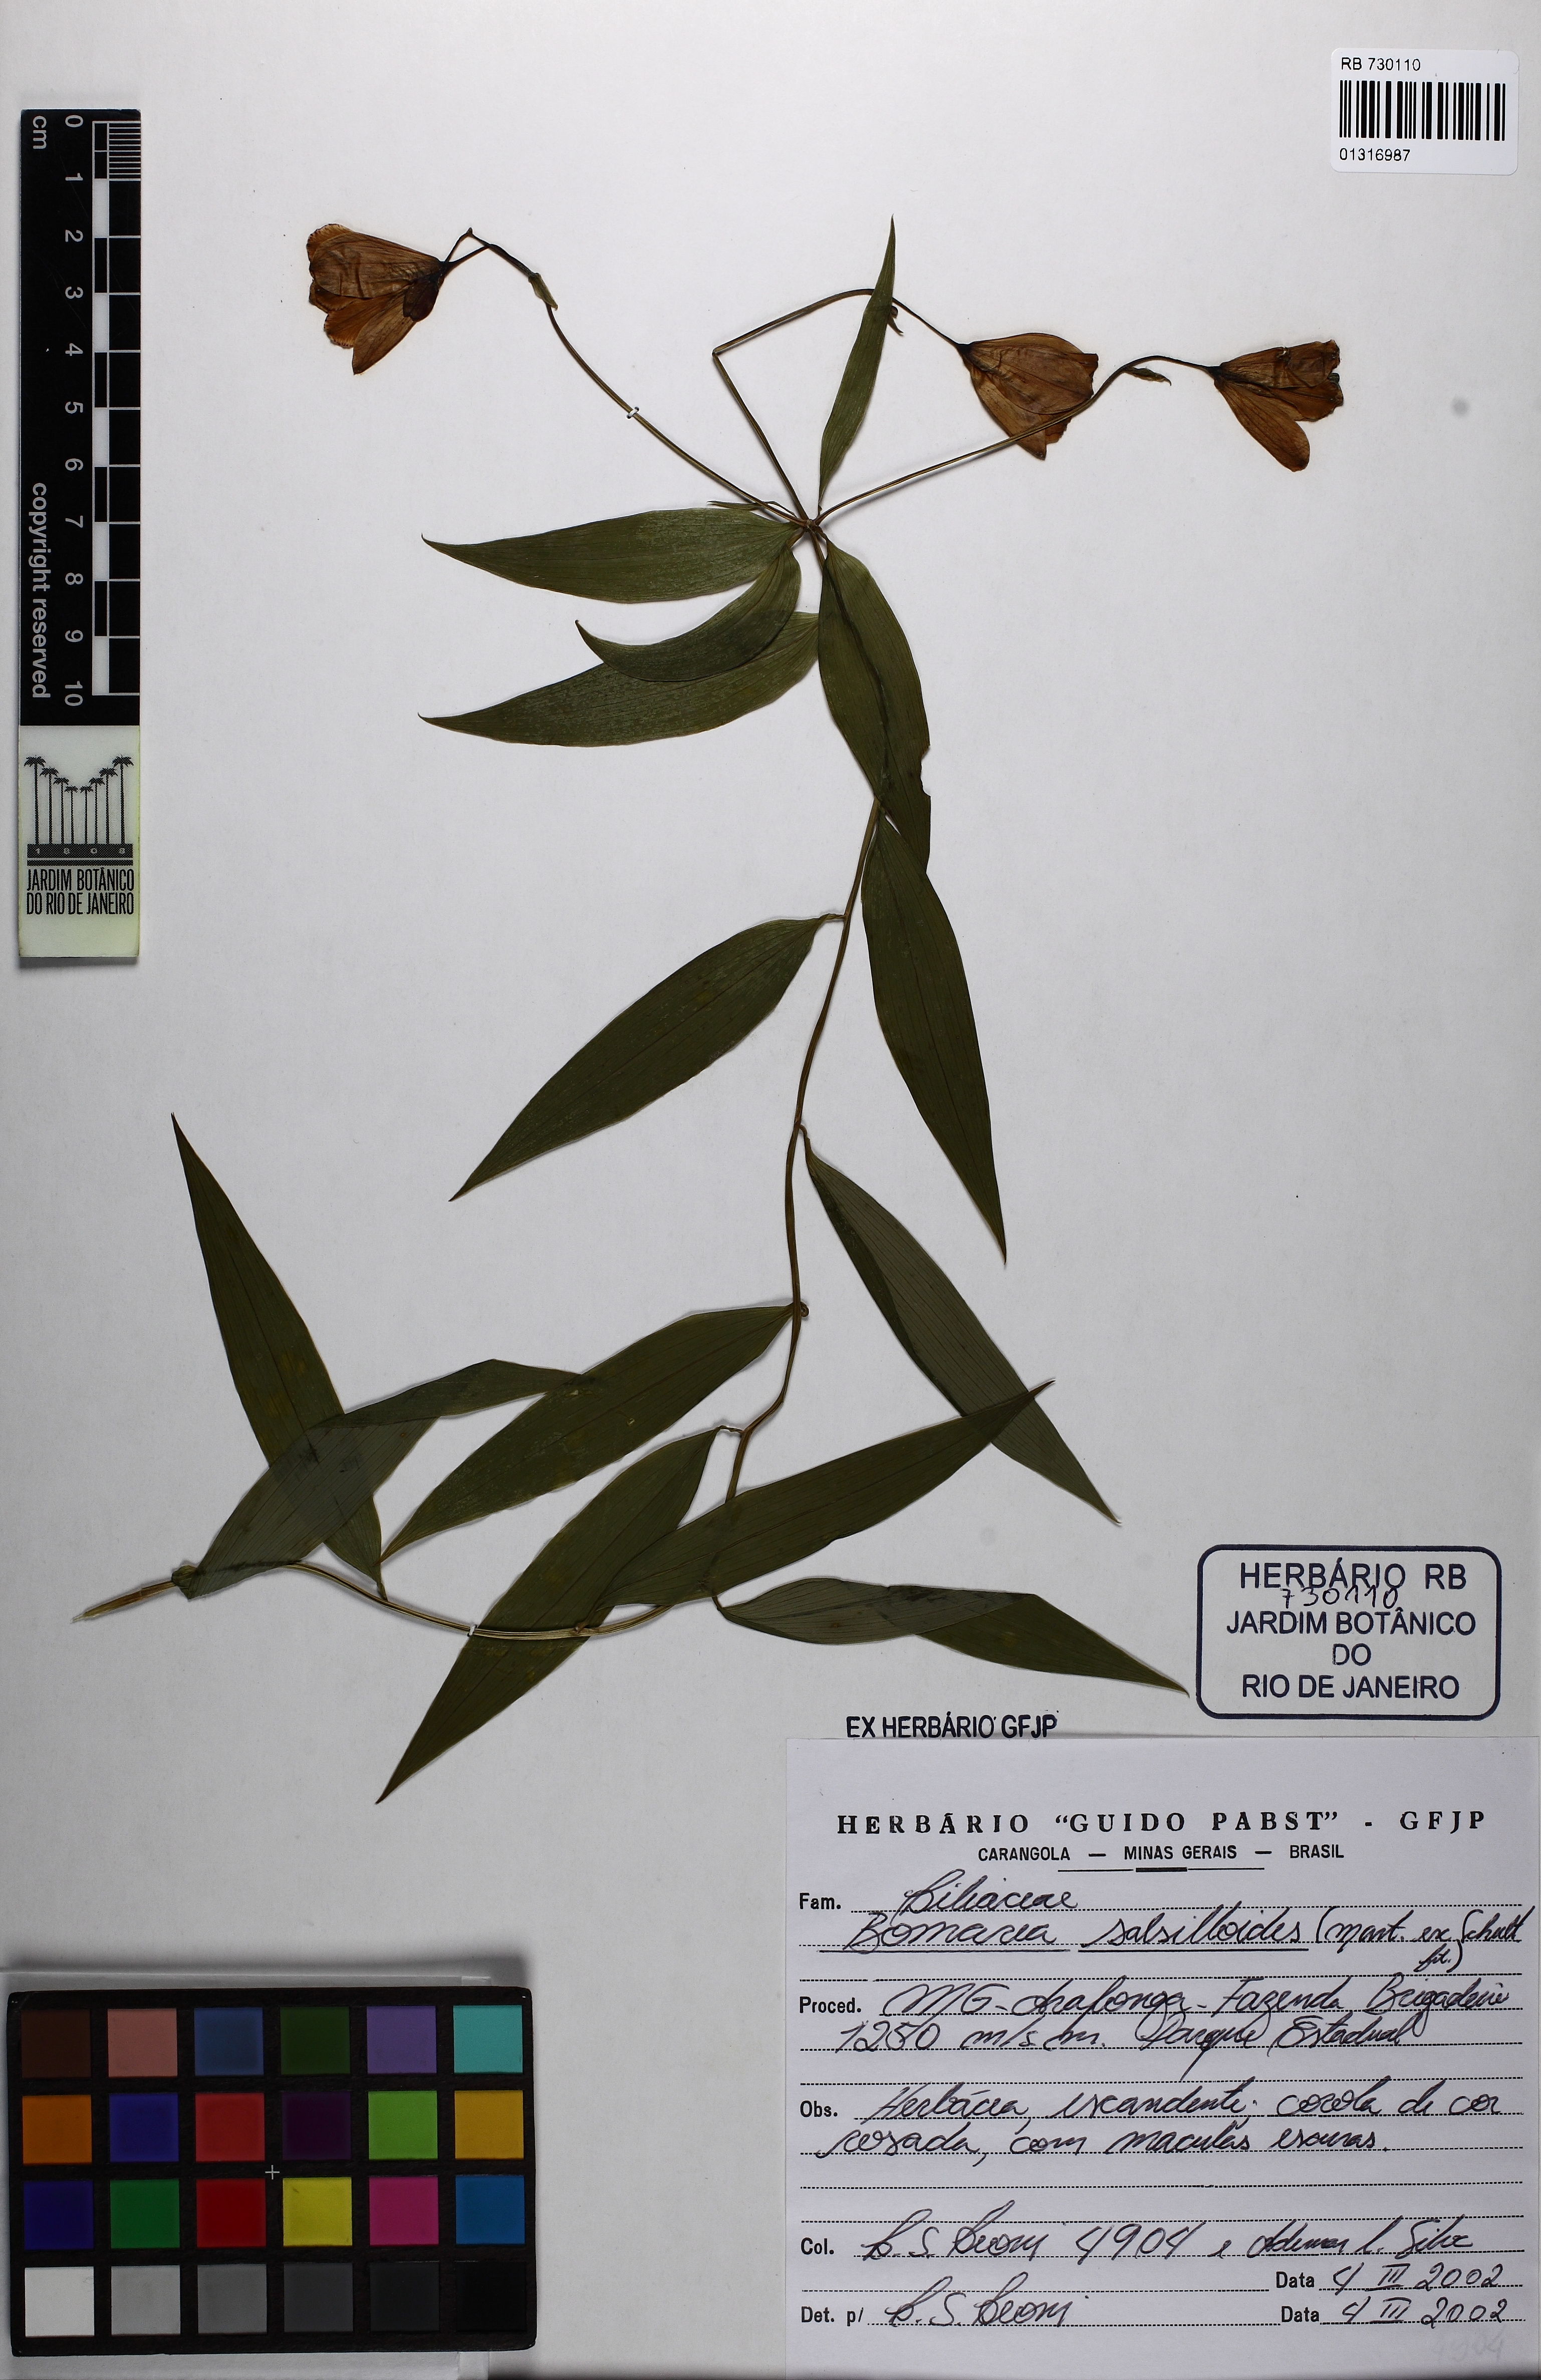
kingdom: Plantae
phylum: Tracheophyta
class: Liliopsida
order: Liliales
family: Alstroemeriaceae
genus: Bomarea
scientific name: Bomarea edulis
